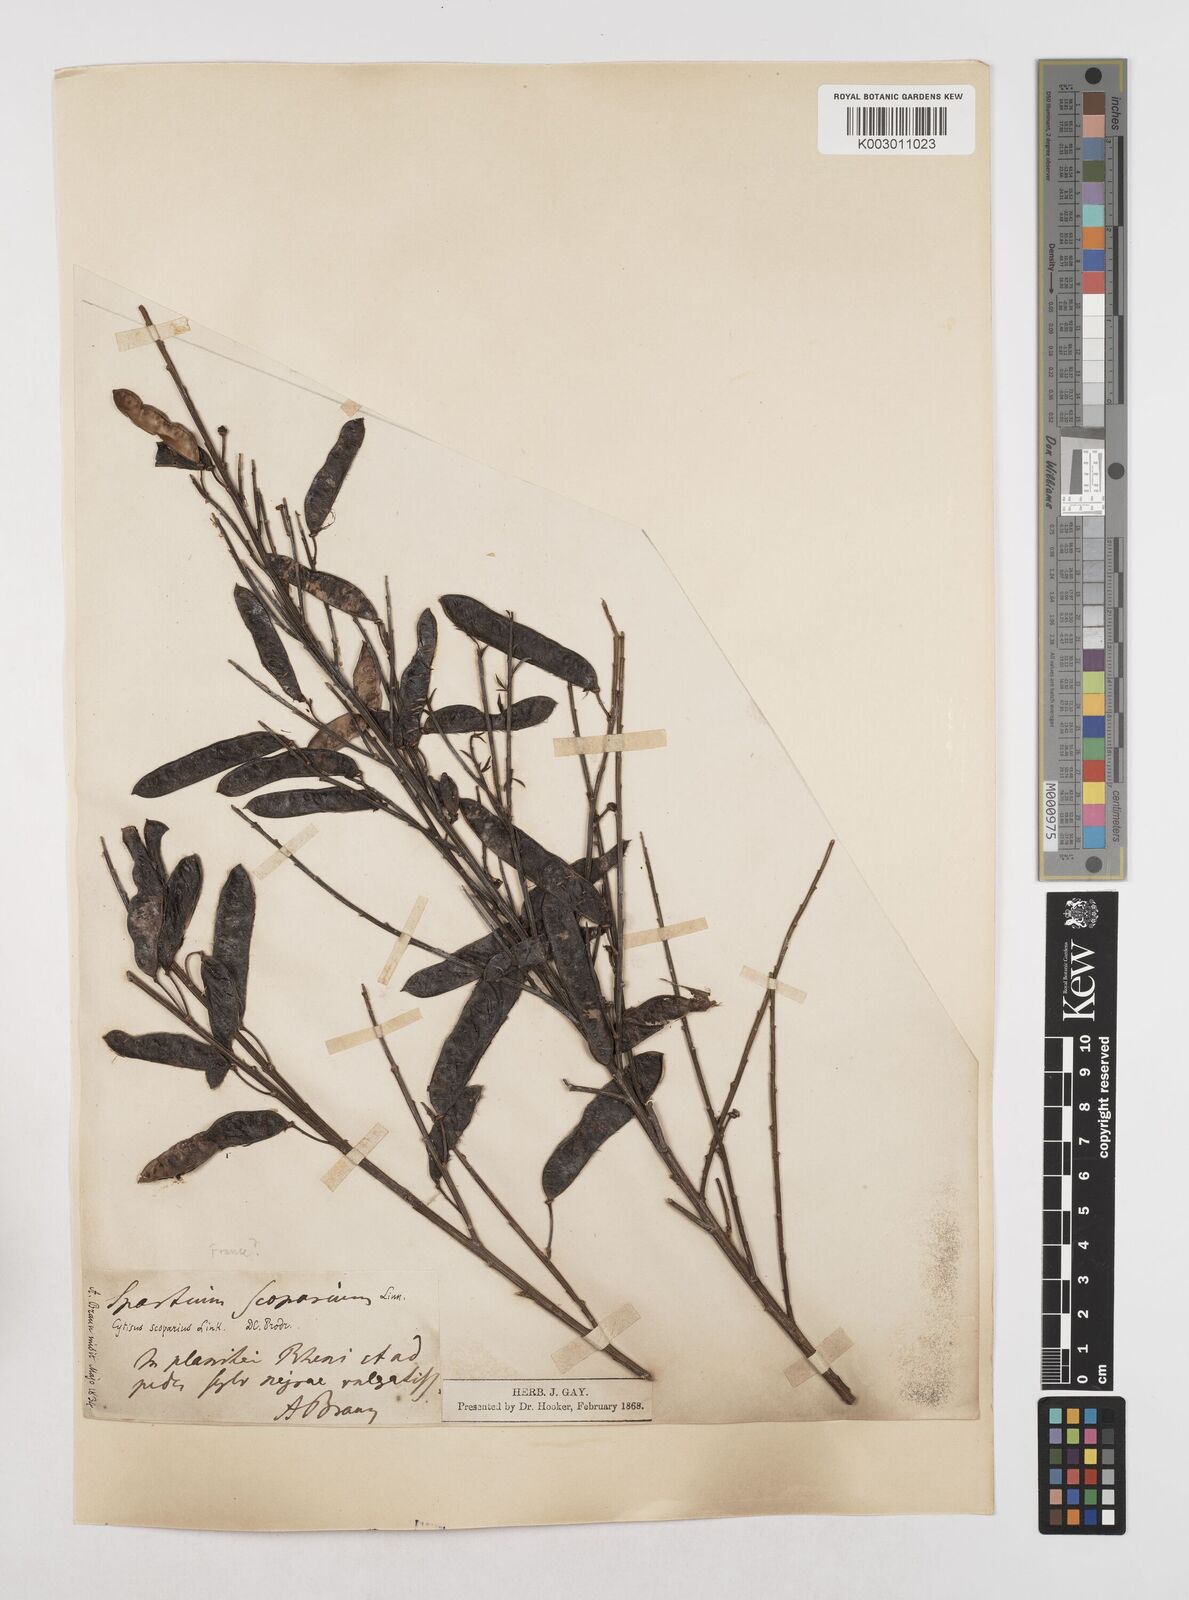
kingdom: Plantae
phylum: Tracheophyta
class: Magnoliopsida
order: Fabales
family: Fabaceae
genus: Cytisus
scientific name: Cytisus scoparius
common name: Scotch broom
